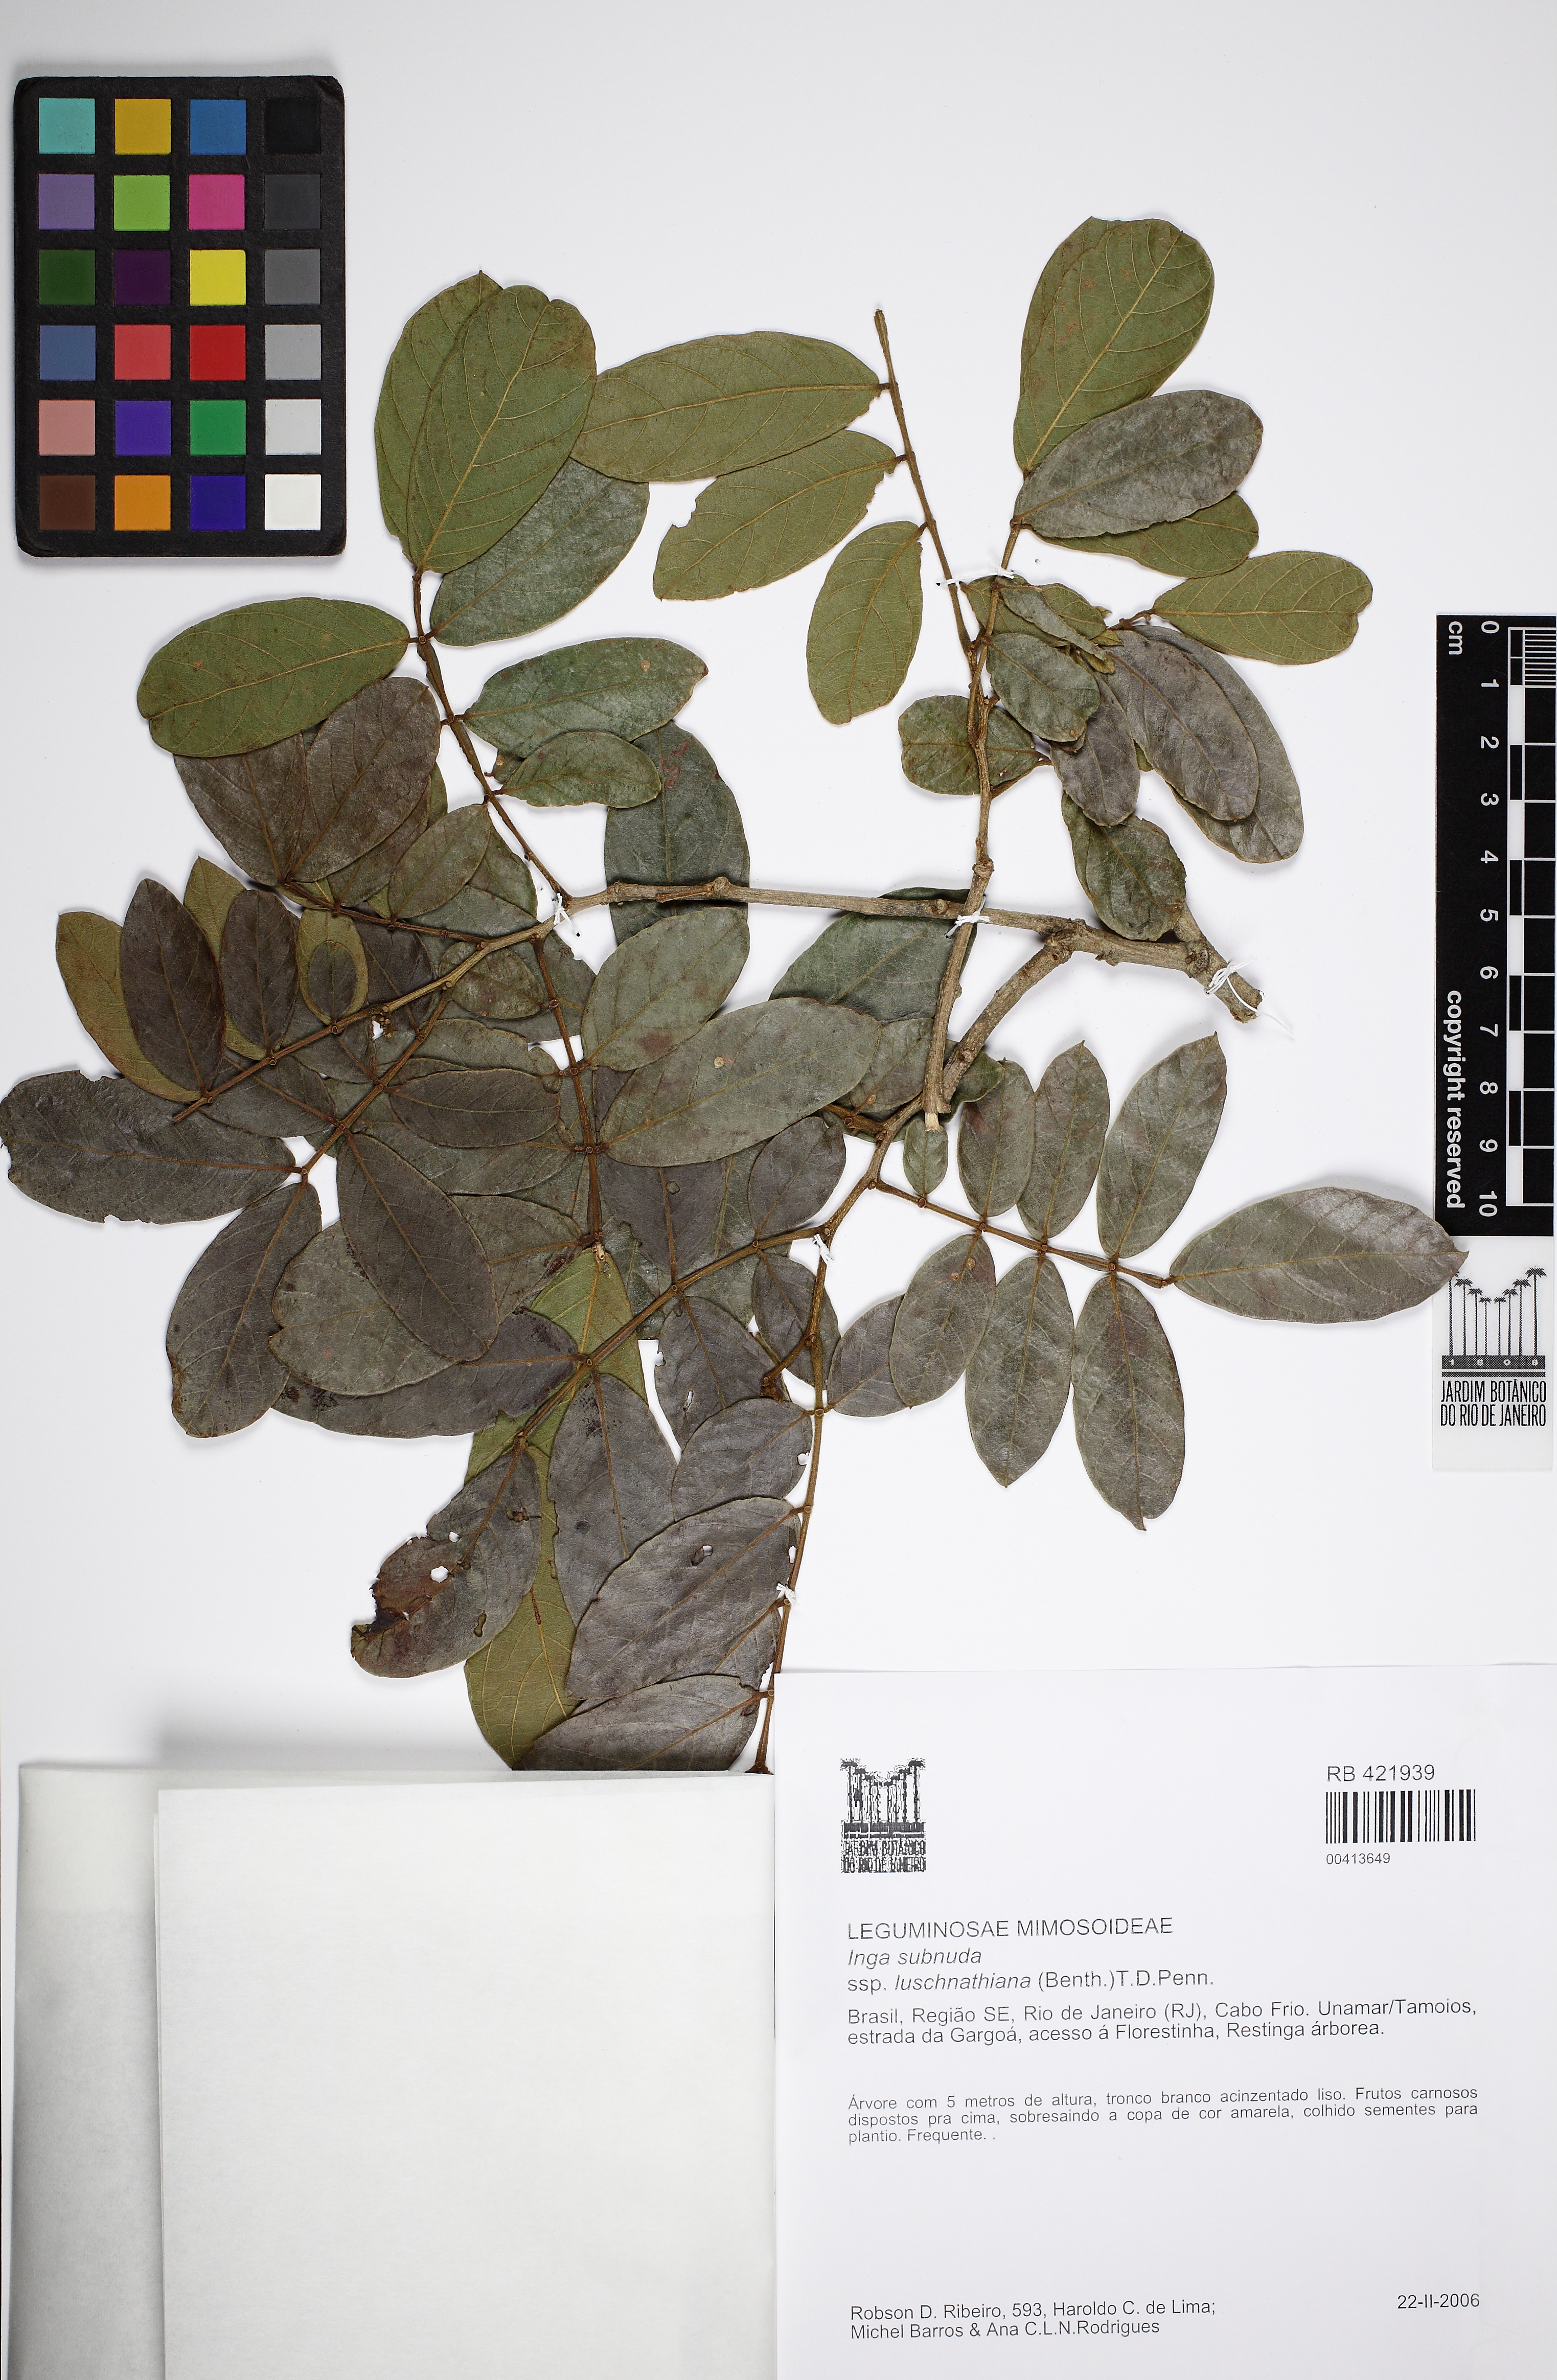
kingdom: Plantae
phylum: Tracheophyta
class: Magnoliopsida
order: Fabales
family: Fabaceae
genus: Inga
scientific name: Inga subnuda
